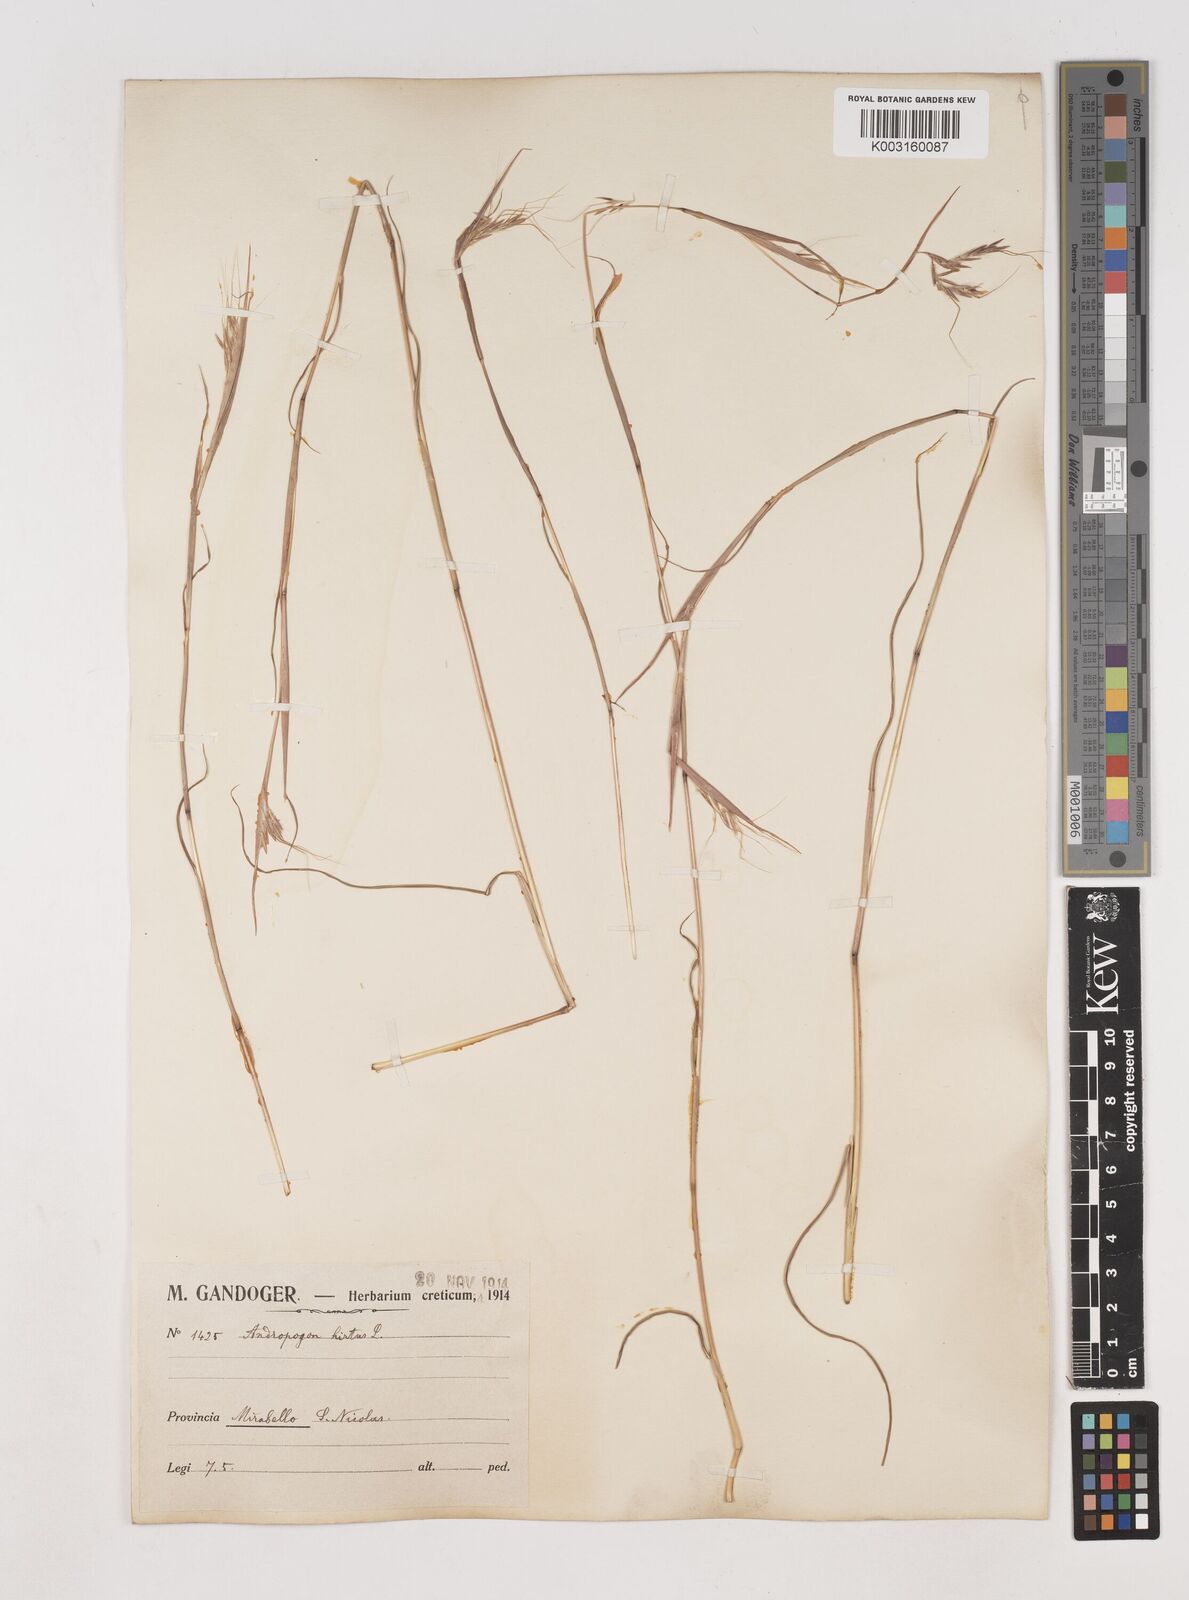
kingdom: Plantae
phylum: Tracheophyta
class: Liliopsida
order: Poales
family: Poaceae
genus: Hyparrhenia
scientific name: Hyparrhenia hirta
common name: Thatching grass
